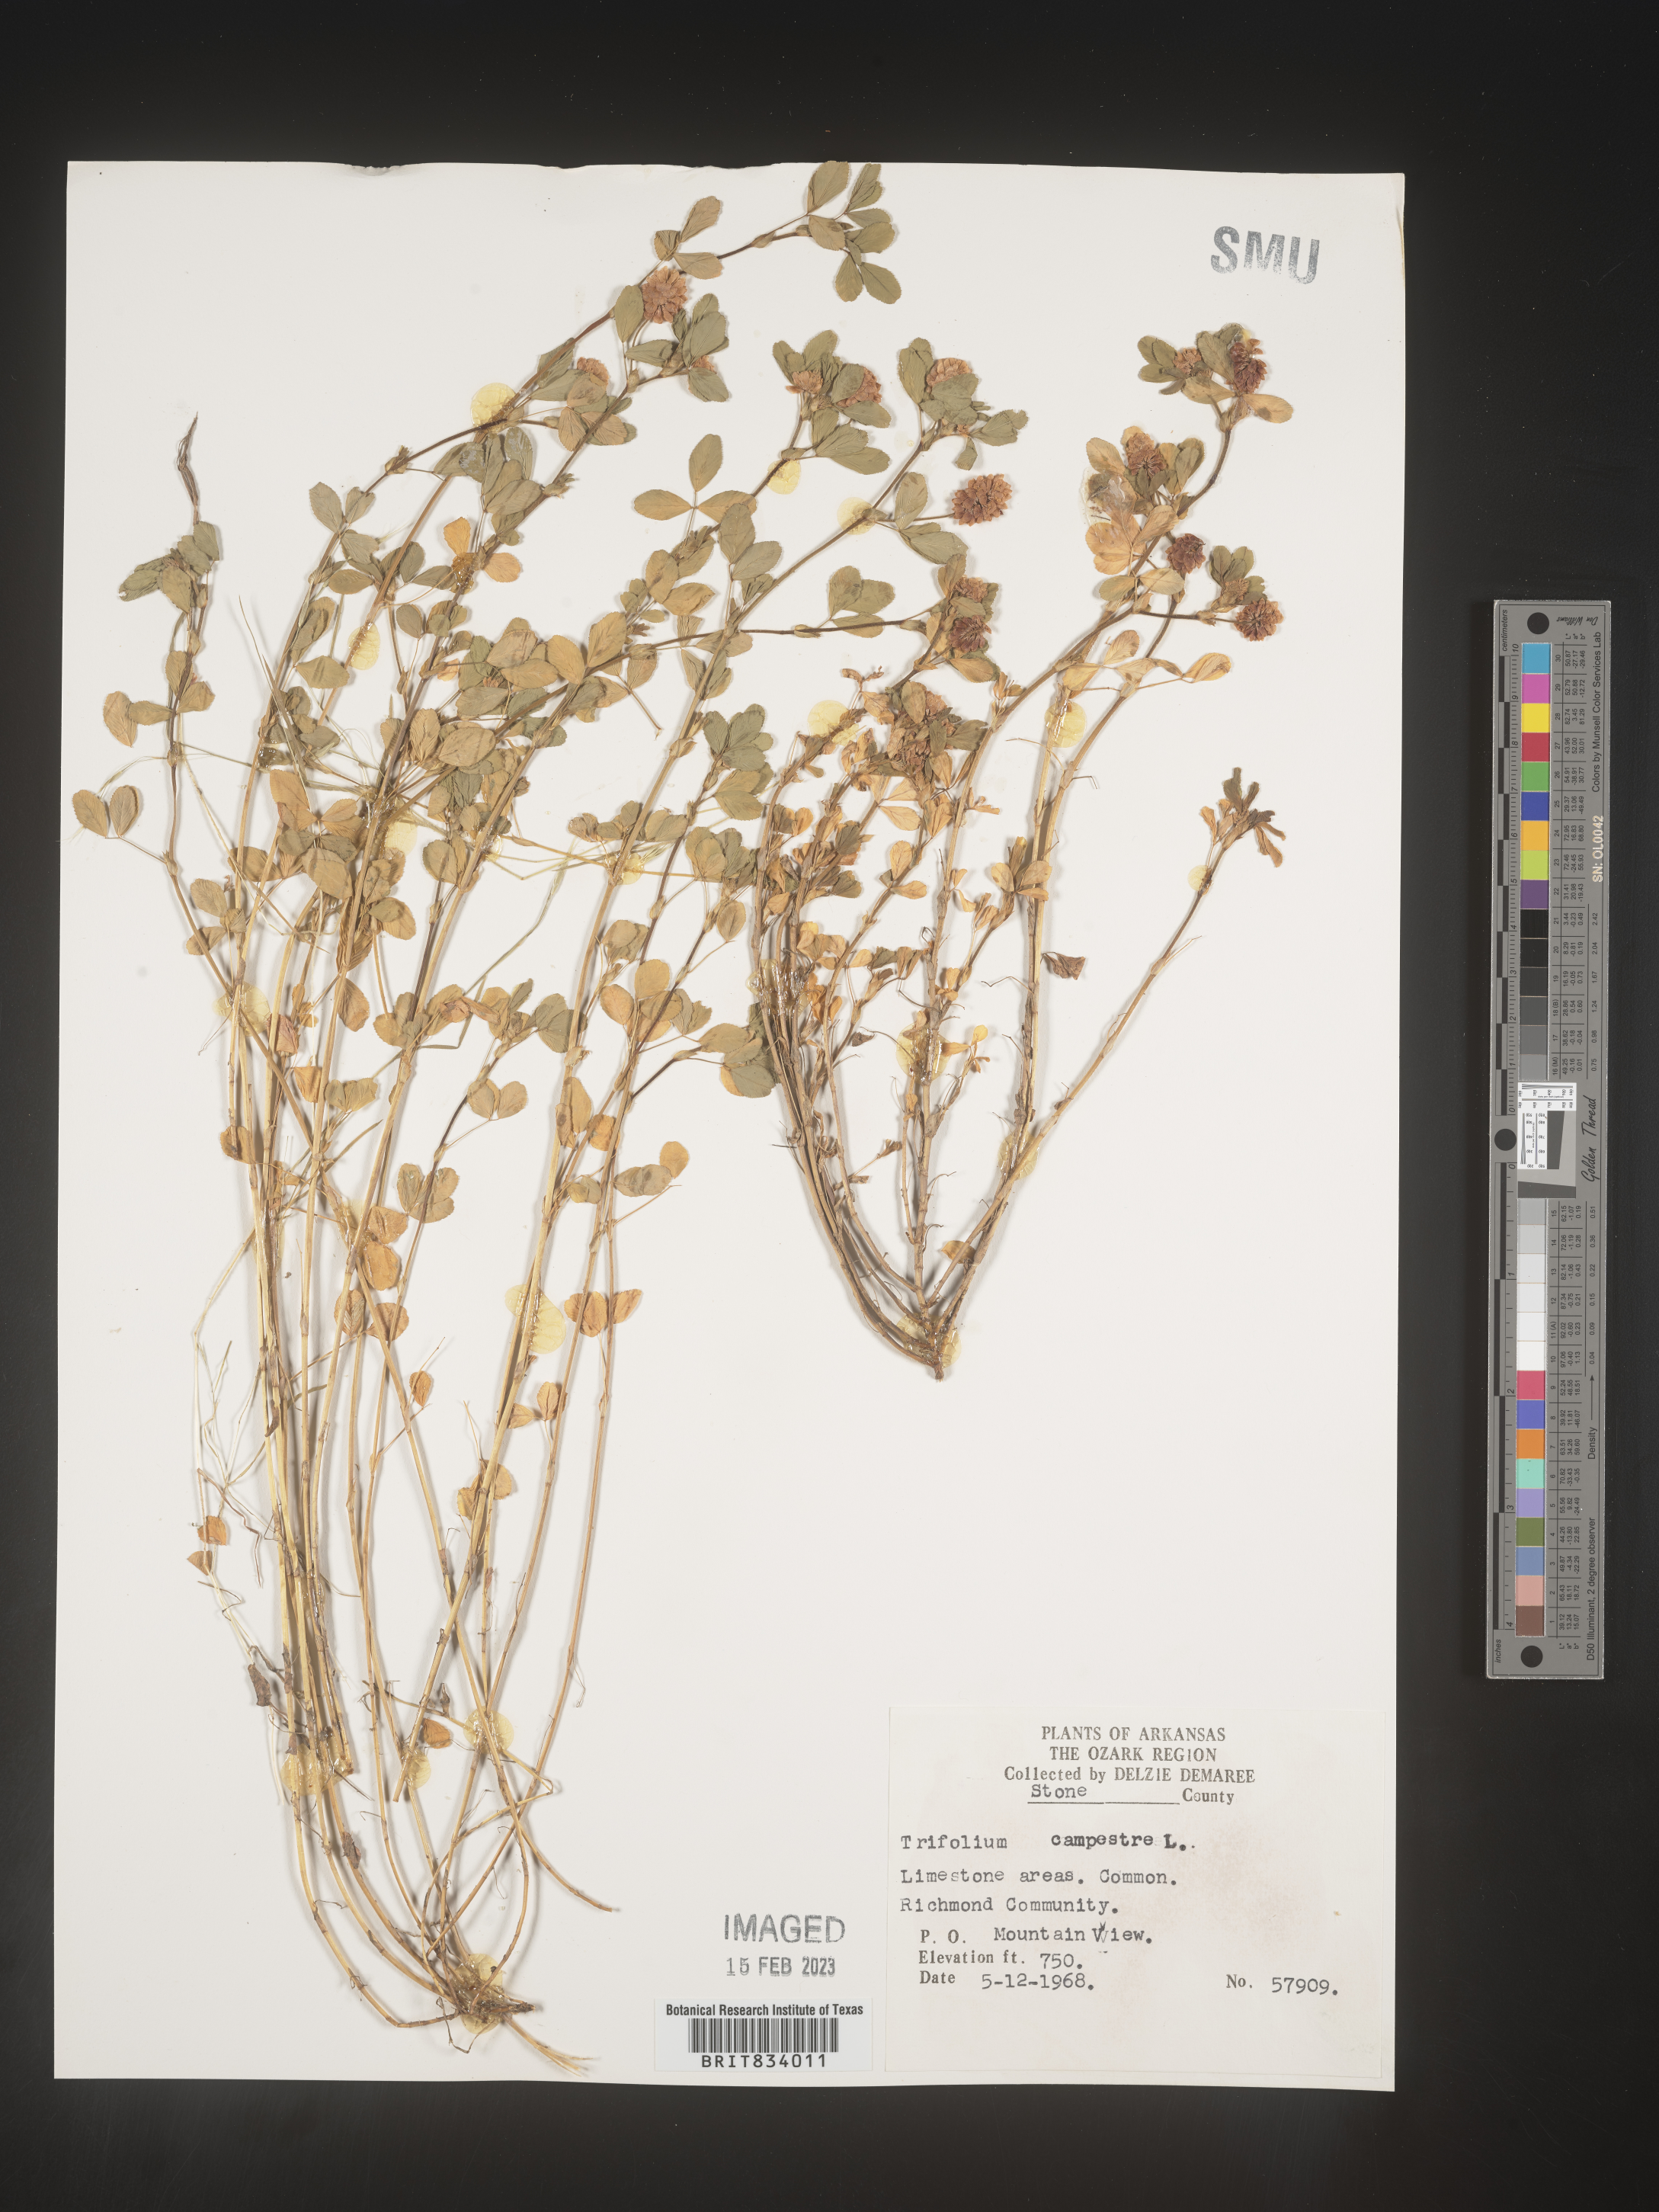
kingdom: Plantae
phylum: Tracheophyta
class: Magnoliopsida
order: Fabales
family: Fabaceae
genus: Trifolium
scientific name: Trifolium campestre
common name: Field clover
